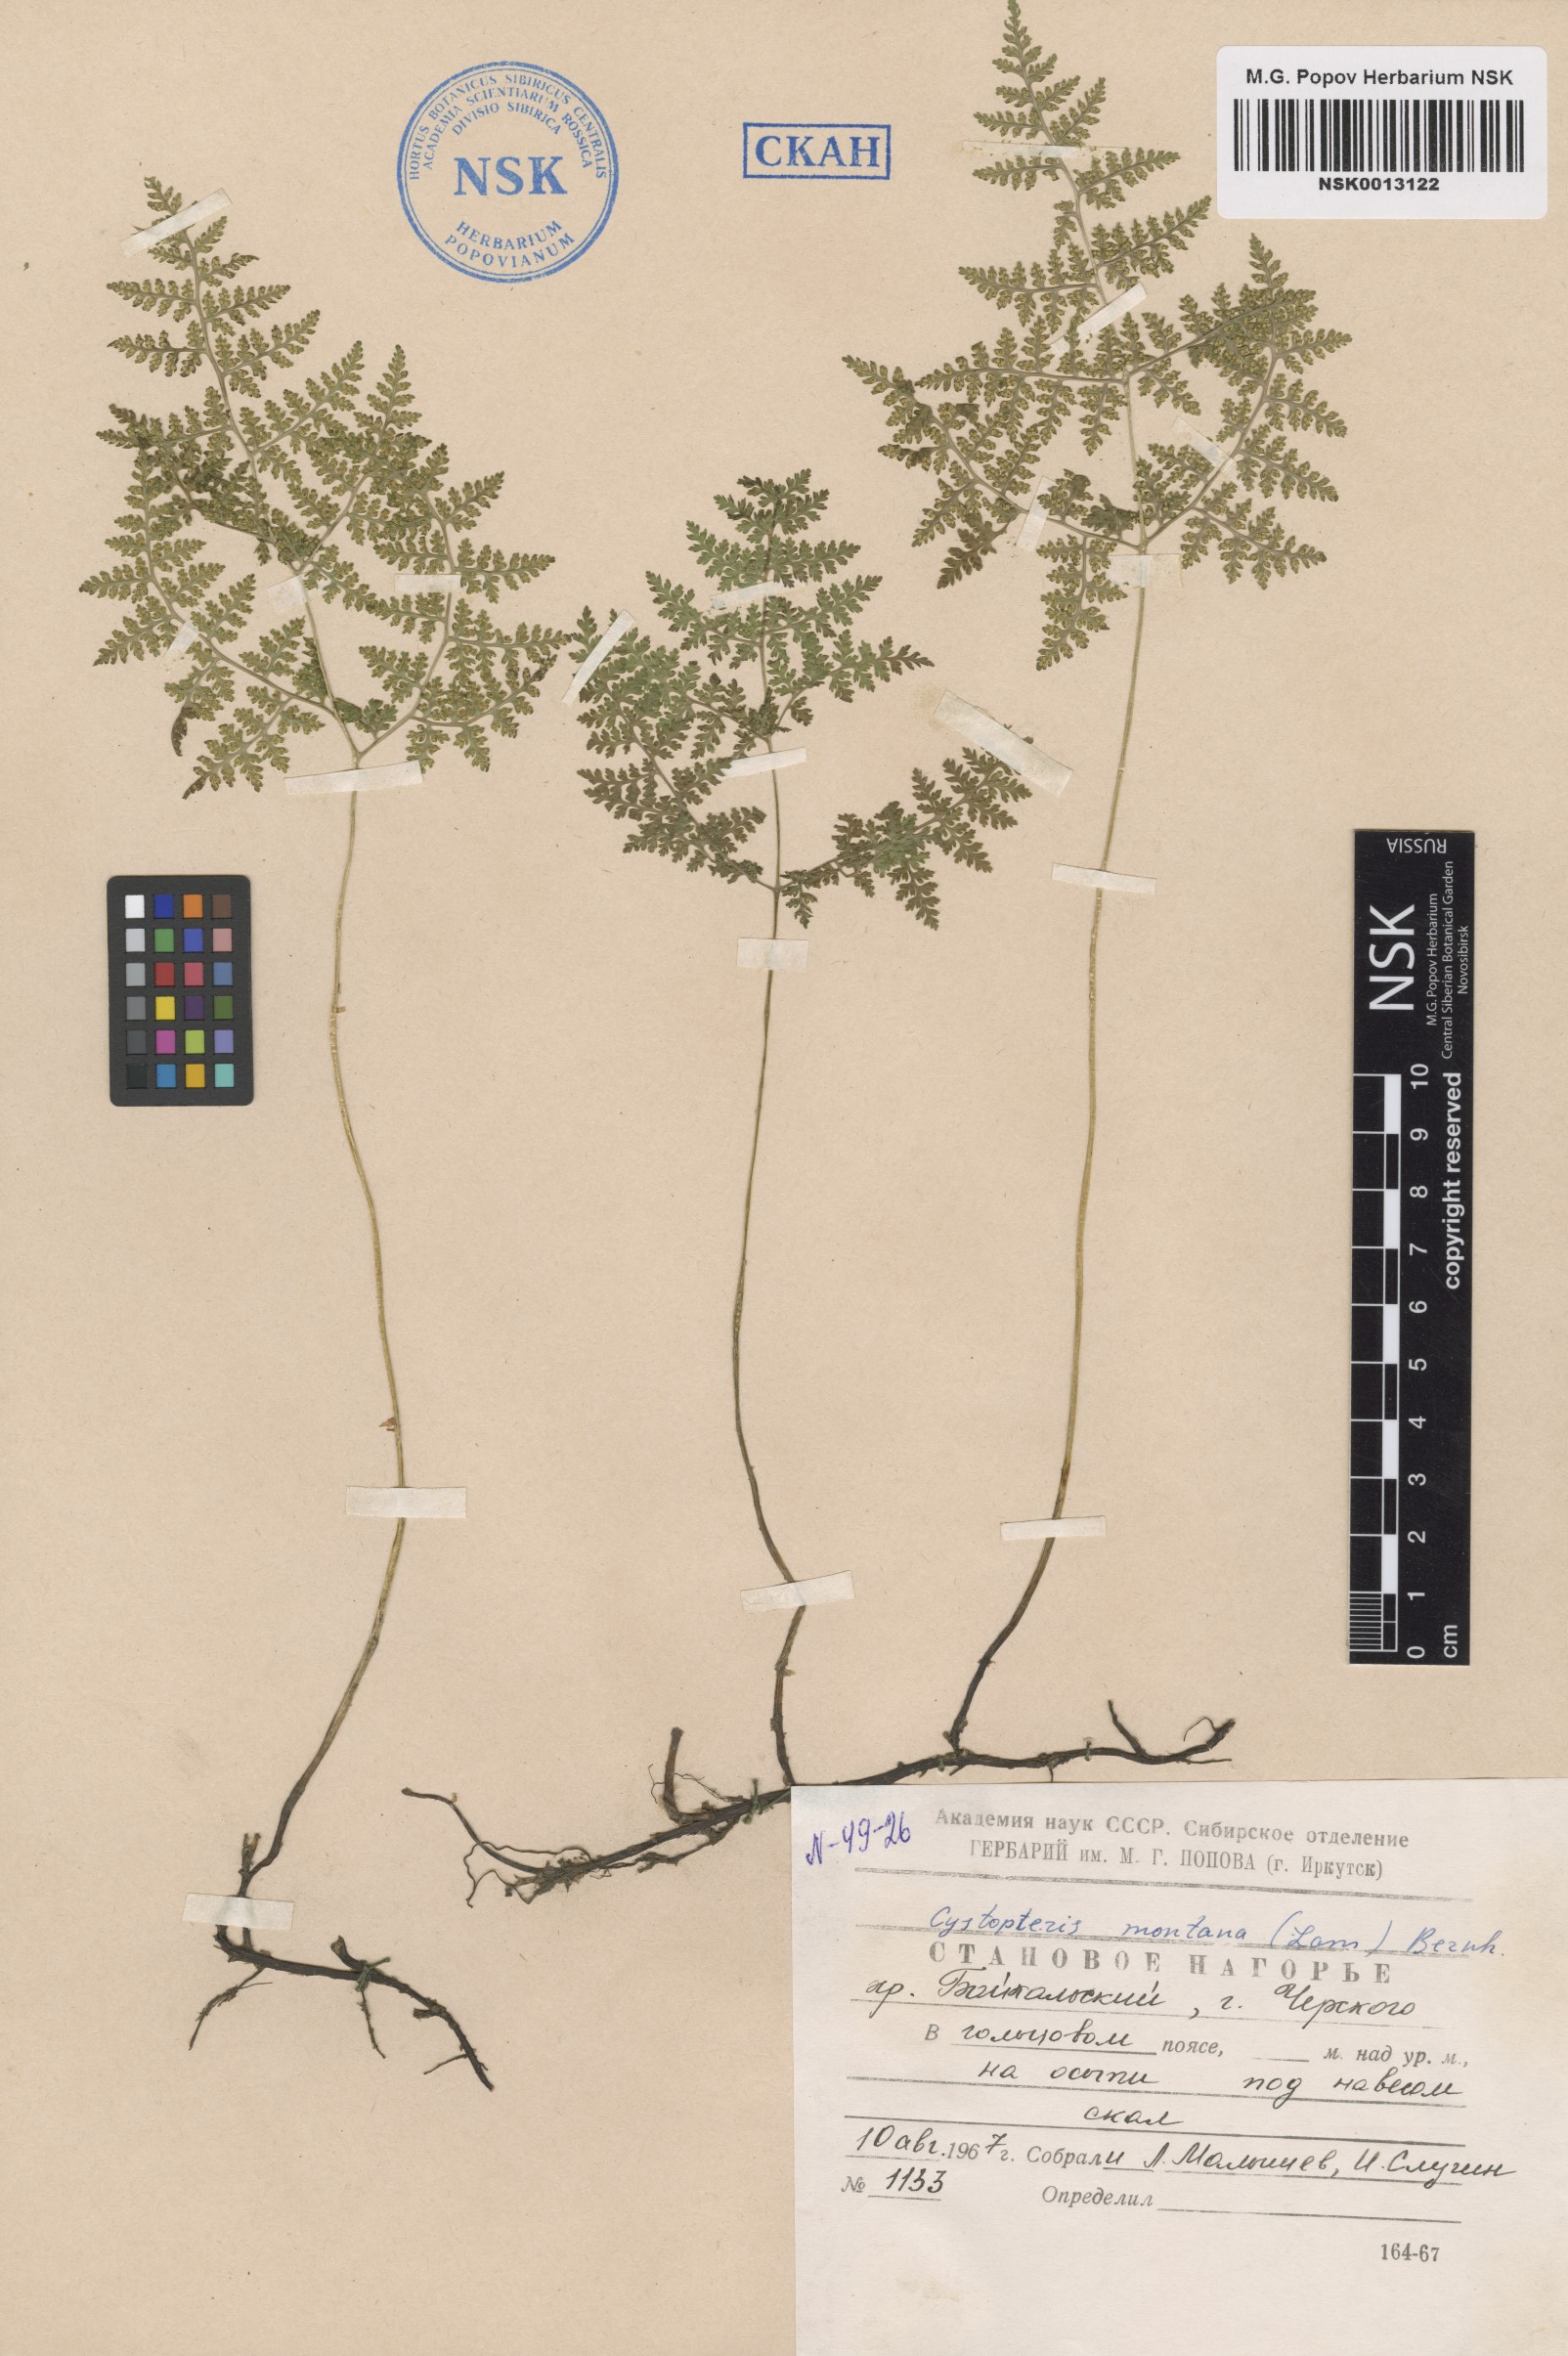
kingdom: Plantae
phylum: Tracheophyta
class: Polypodiopsida
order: Polypodiales
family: Cystopteridaceae
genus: Cystopteris
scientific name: Cystopteris montana
